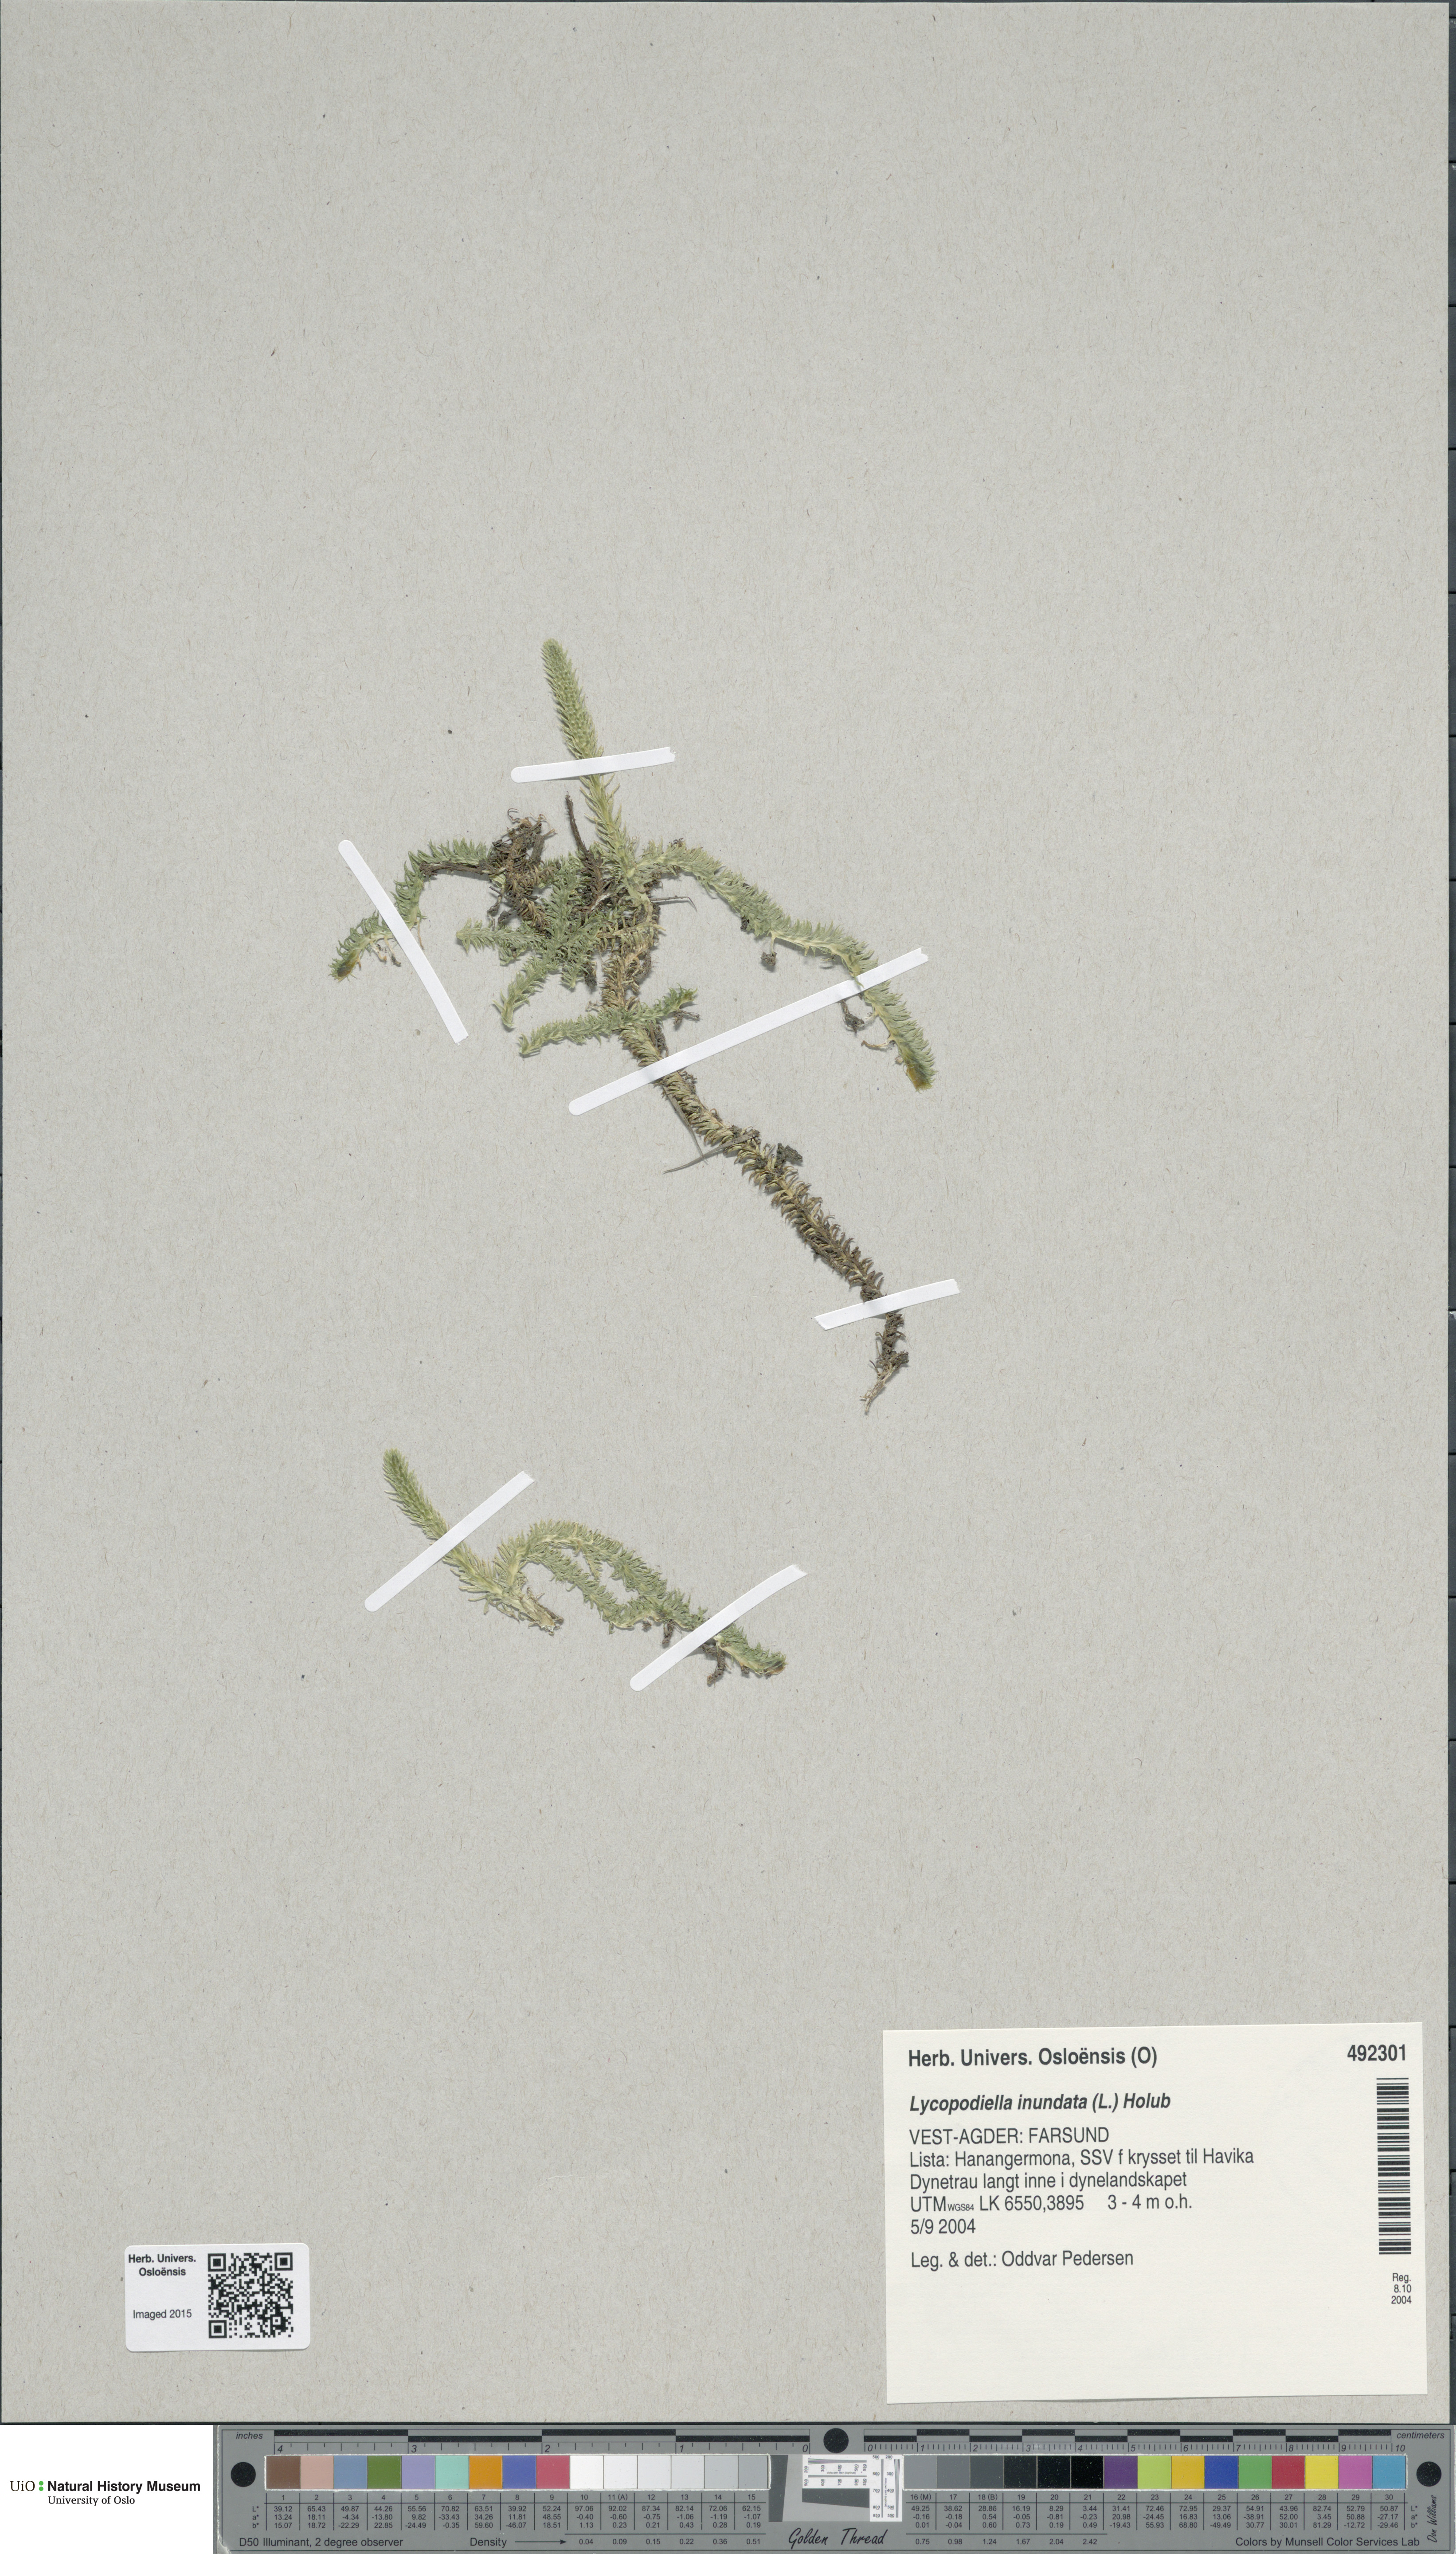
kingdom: Plantae
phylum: Tracheophyta
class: Lycopodiopsida
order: Lycopodiales
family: Lycopodiaceae
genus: Lycopodiella
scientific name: Lycopodiella inundata
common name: Marsh clubmoss
